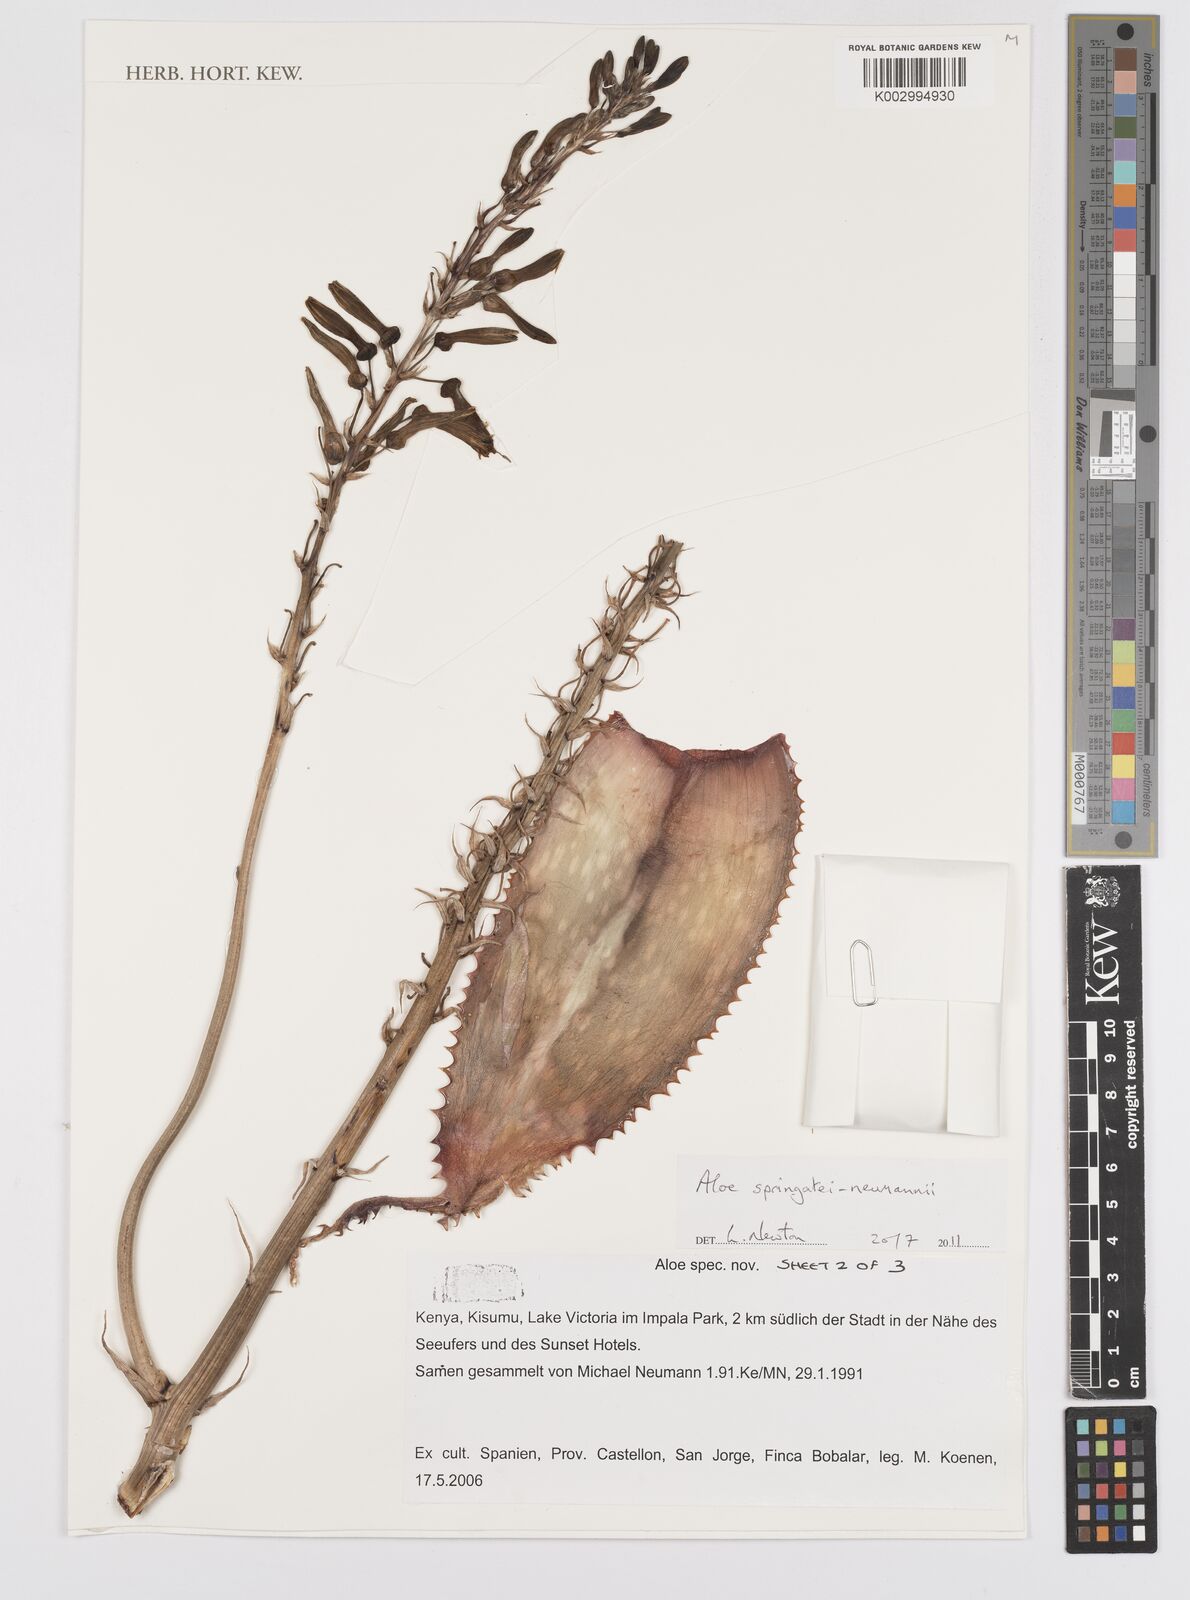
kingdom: Plantae
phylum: Tracheophyta
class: Liliopsida
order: Asparagales
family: Asphodelaceae
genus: Aloe
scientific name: Aloe springatei-neumannii
